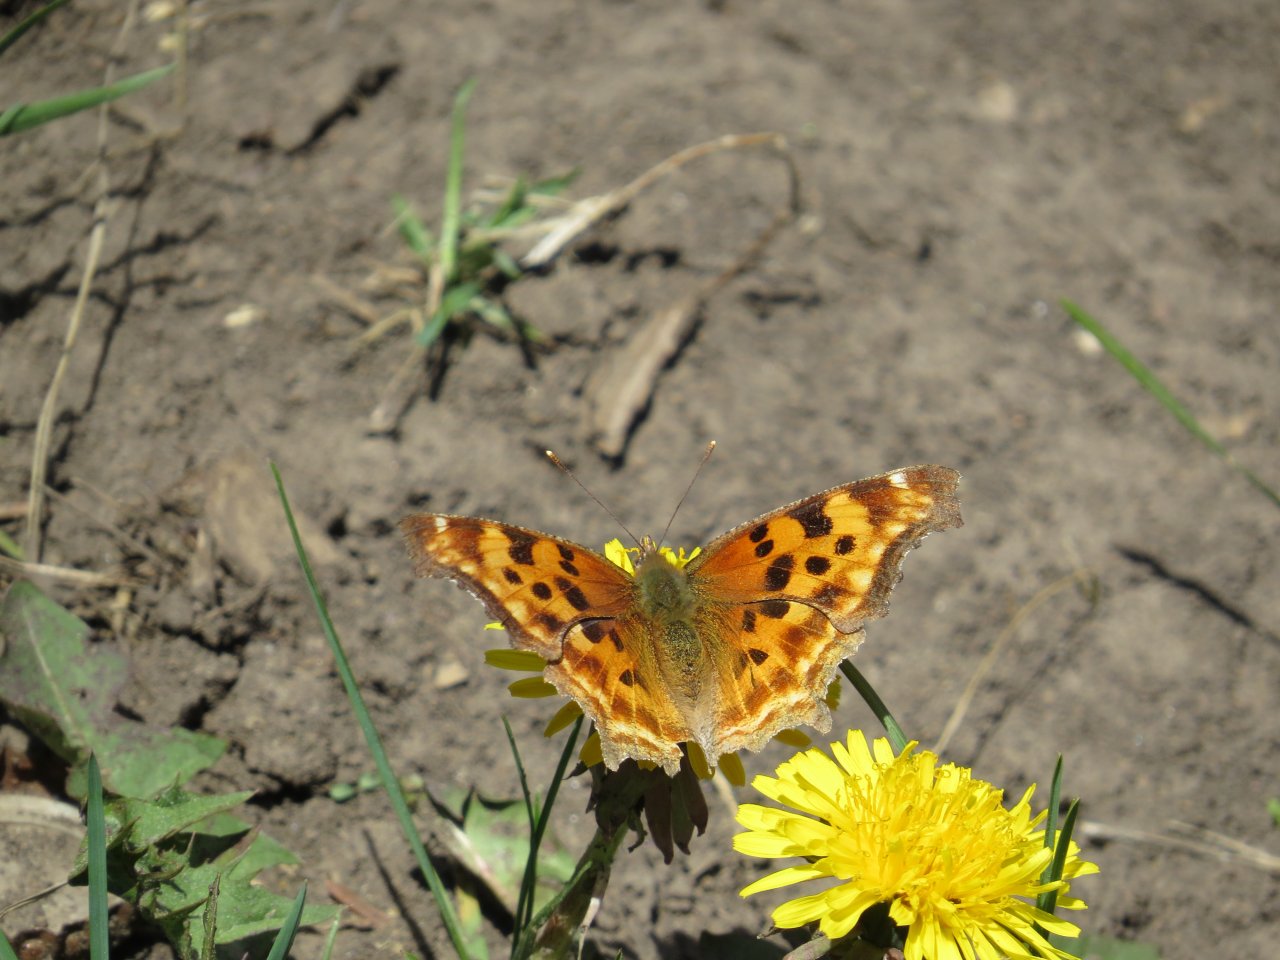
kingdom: Animalia
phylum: Arthropoda
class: Insecta
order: Lepidoptera
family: Nymphalidae
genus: Polygonia
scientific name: Polygonia faunus
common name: Green Comma
